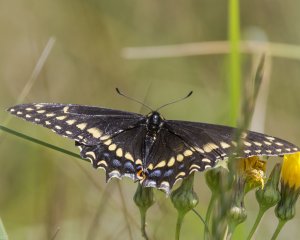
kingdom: Animalia
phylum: Arthropoda
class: Insecta
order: Lepidoptera
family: Papilionidae
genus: Papilio
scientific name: Papilio brevicauda
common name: Short-tailed Swallowtail
